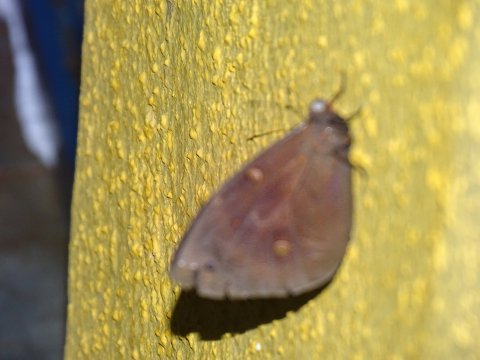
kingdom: Animalia
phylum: Arthropoda
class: Insecta
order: Lepidoptera
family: Nymphalidae
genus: Brassolis
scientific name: Brassolis sophorae
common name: coconut caterpillar
